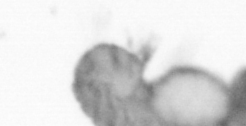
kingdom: Animalia
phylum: Arthropoda
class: Copepoda
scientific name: Copepoda
